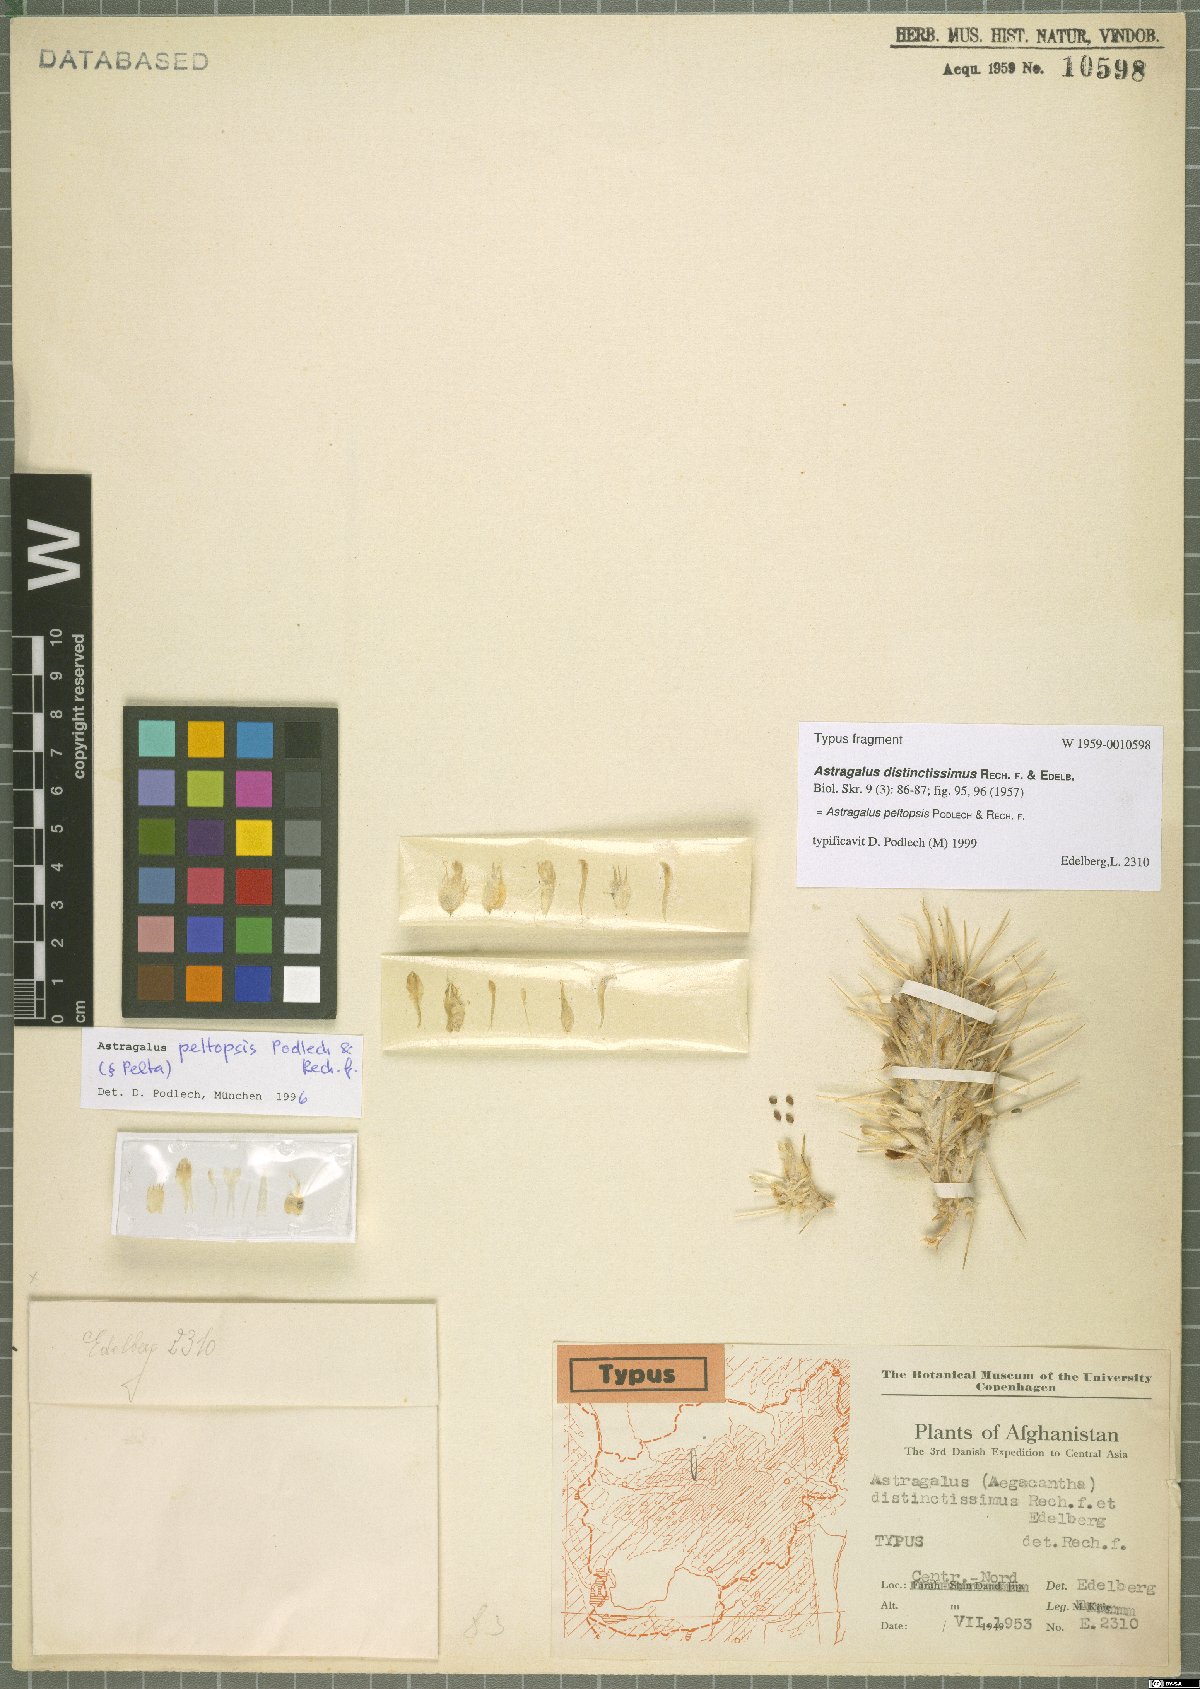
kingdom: Plantae
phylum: Tracheophyta
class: Magnoliopsida
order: Fabales
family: Fabaceae
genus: Astragalus
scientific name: Astragalus peltopsis
